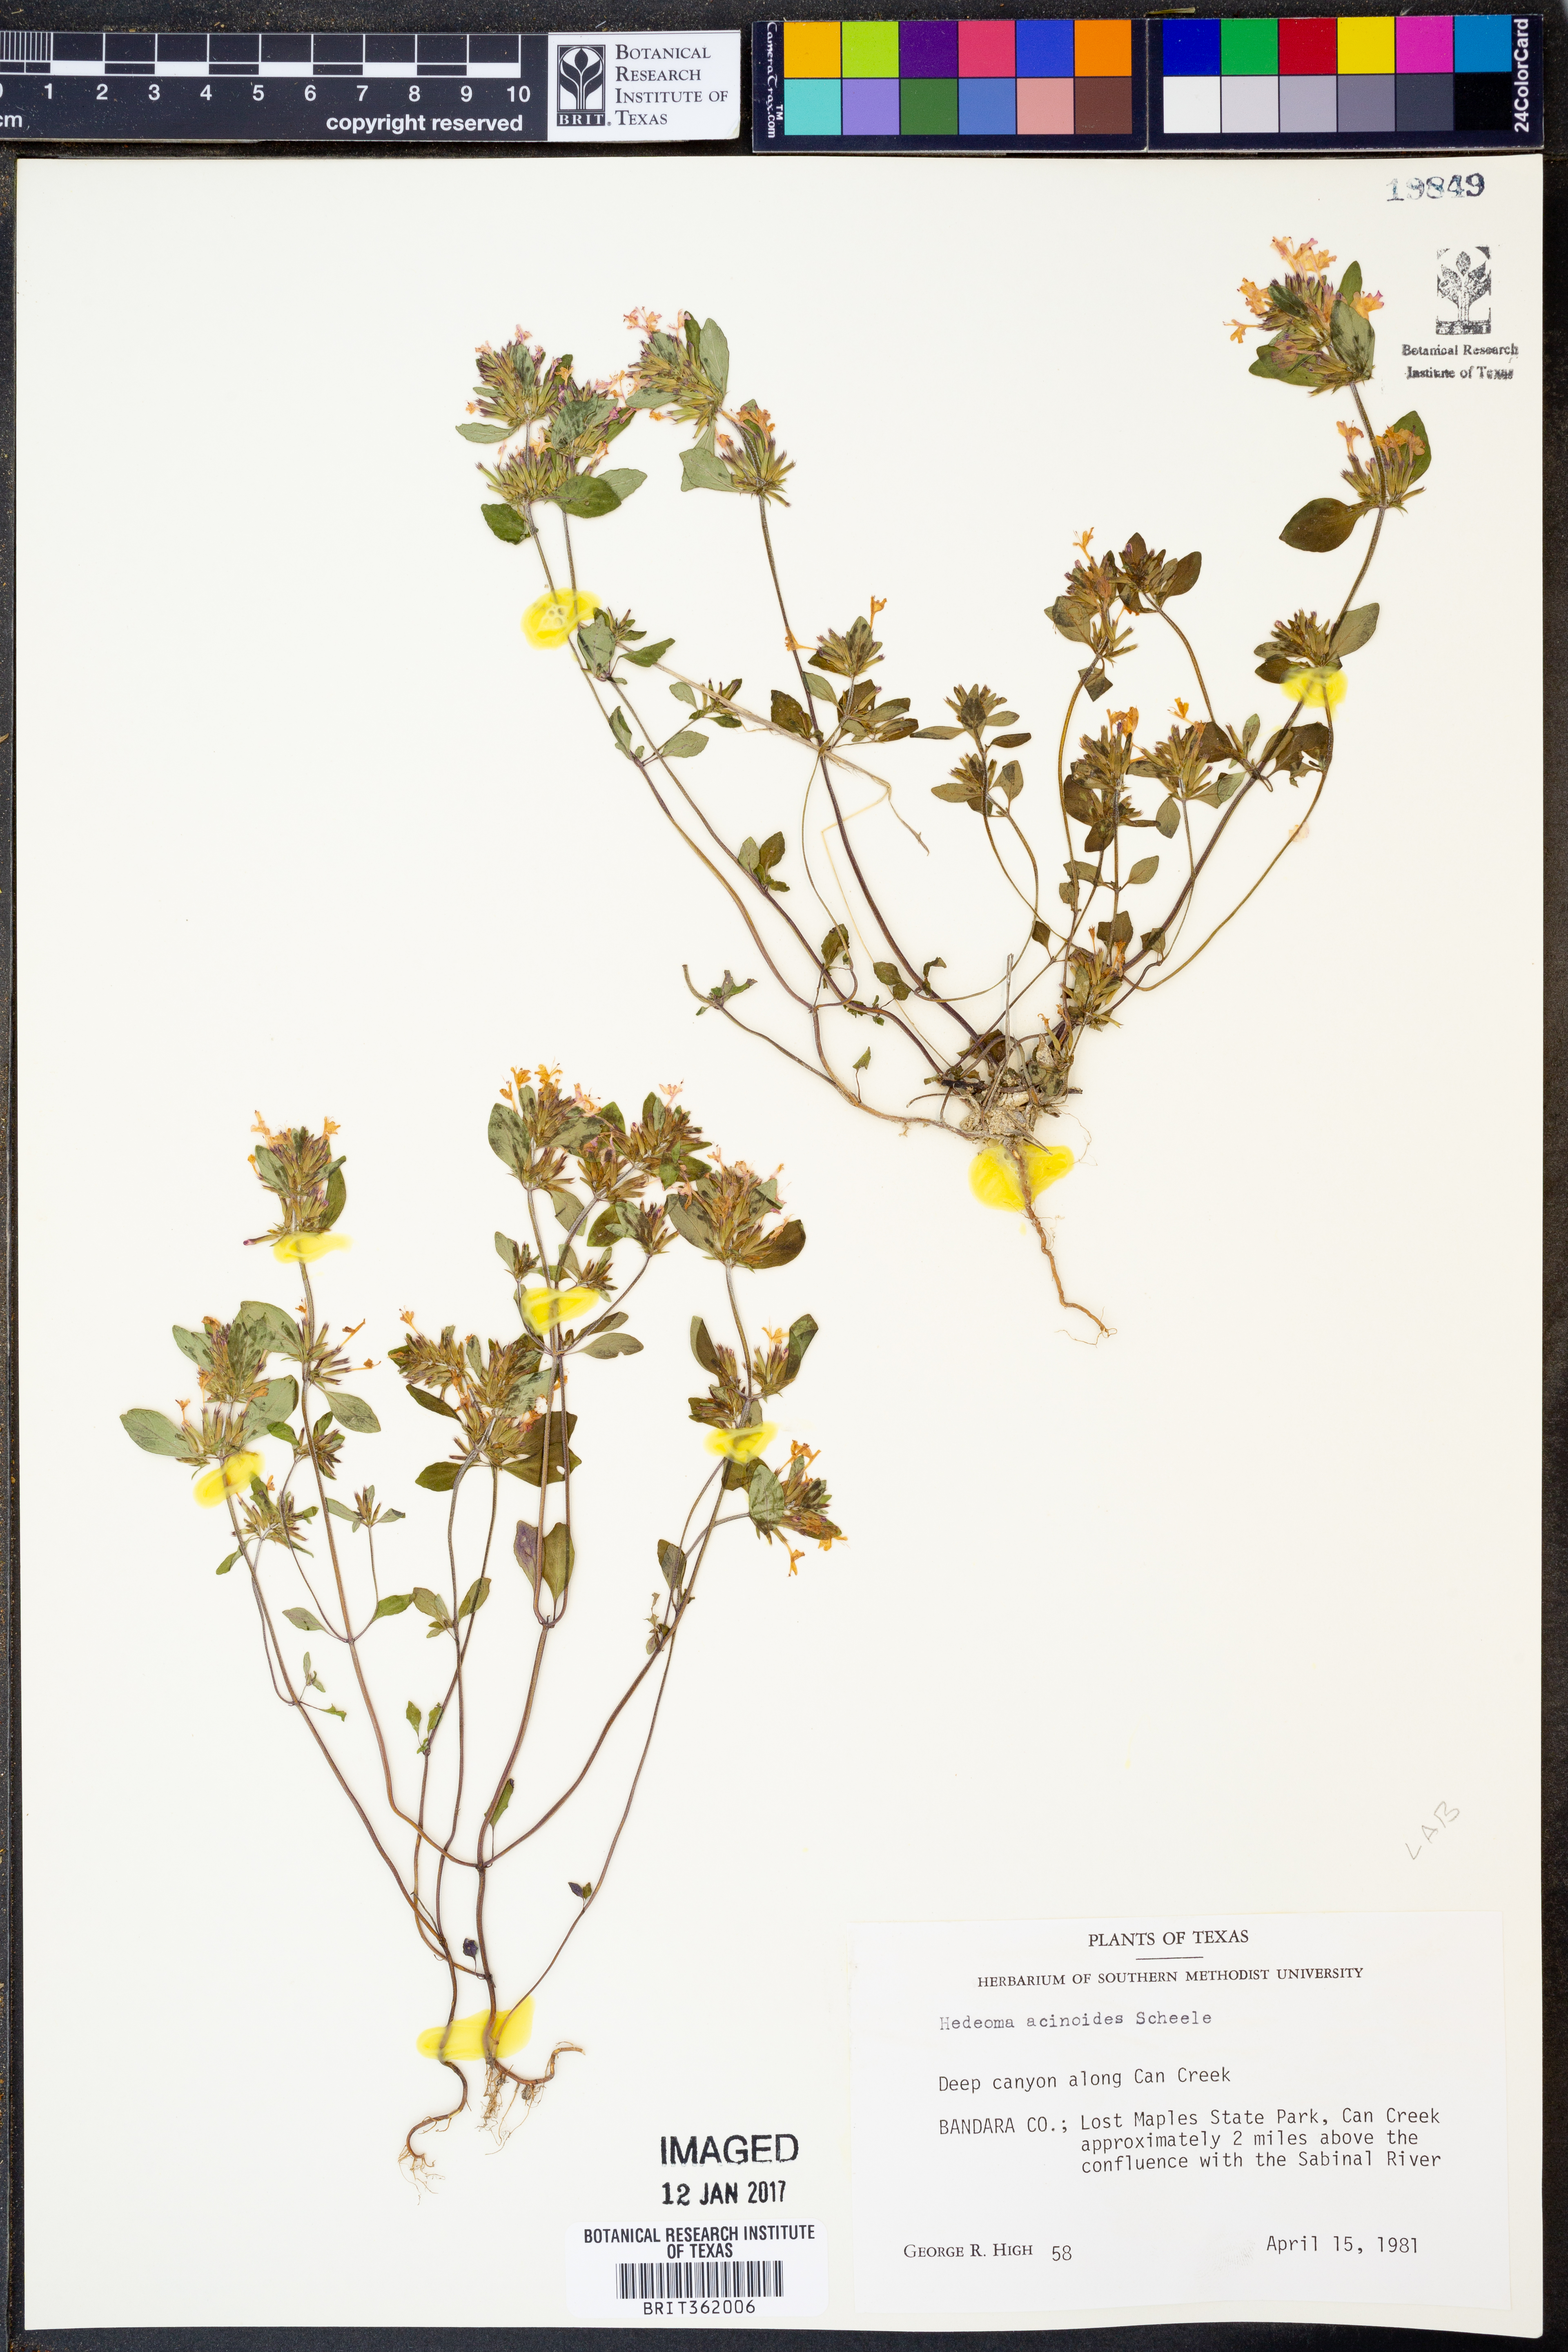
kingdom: Plantae
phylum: Tracheophyta
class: Magnoliopsida
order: Lamiales
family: Lamiaceae
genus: Hedeoma
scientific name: Hedeoma acinoides
